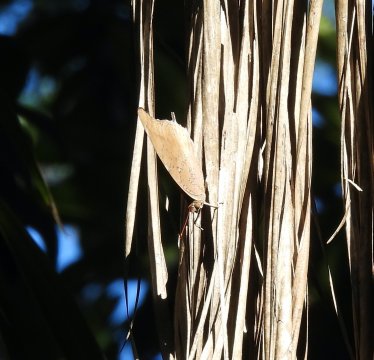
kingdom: Animalia
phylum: Arthropoda
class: Insecta
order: Lepidoptera
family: Nymphalidae
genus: Coea
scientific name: Coea acheronta
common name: Tailed Cecropian
